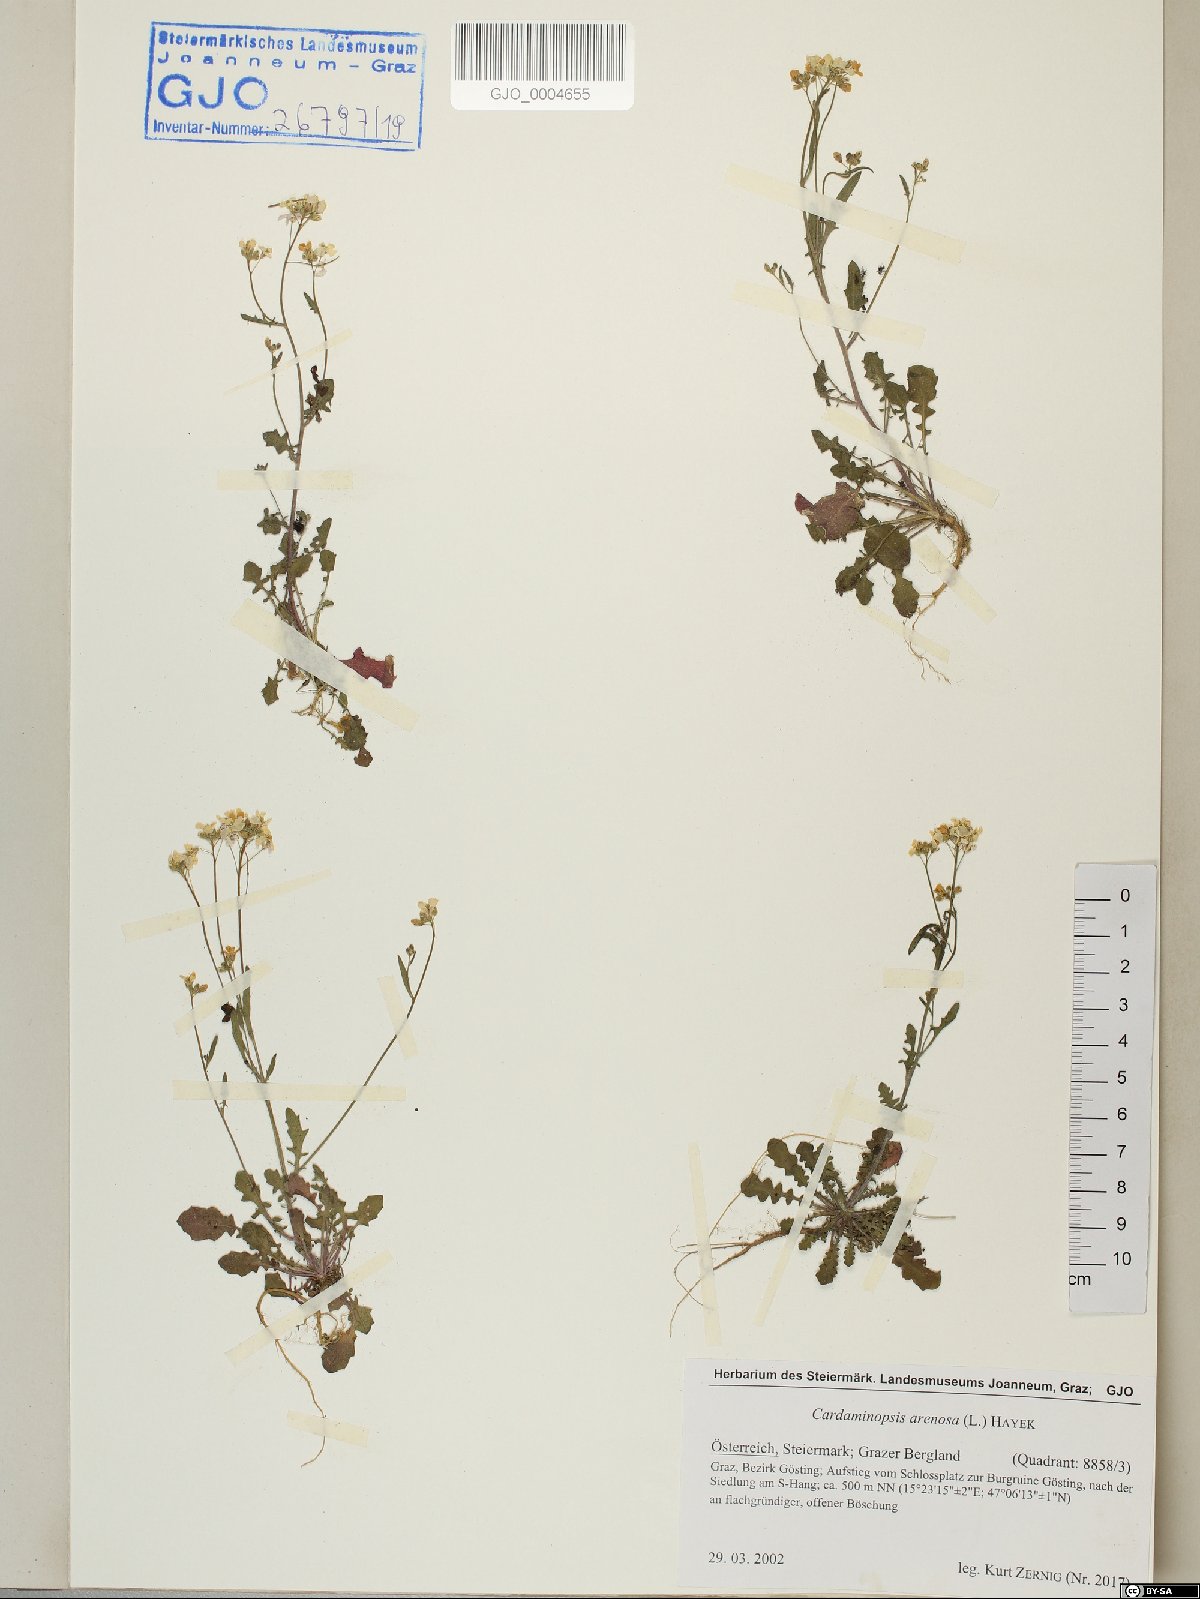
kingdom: Plantae
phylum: Tracheophyta
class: Magnoliopsida
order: Brassicales
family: Brassicaceae
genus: Arabidopsis
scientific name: Arabidopsis arenosa
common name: Sand rock-cress
